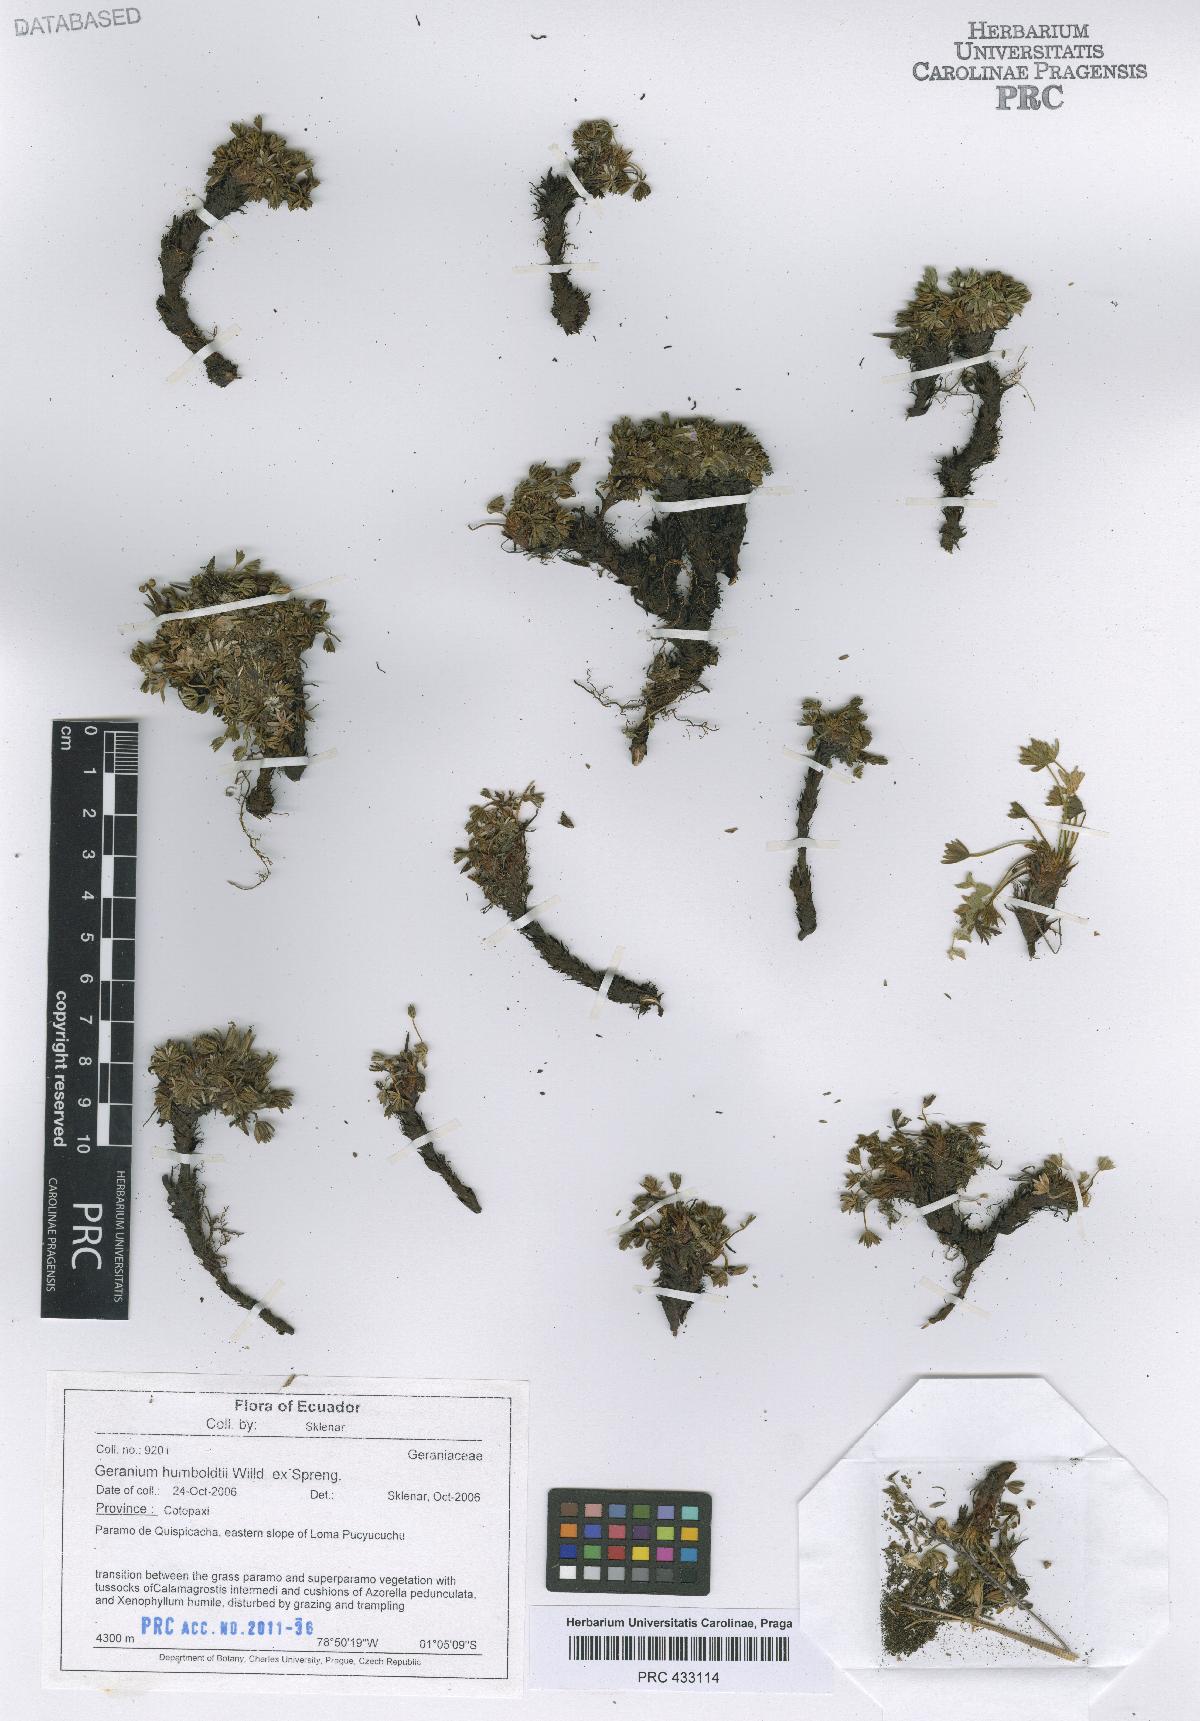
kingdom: Plantae
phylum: Tracheophyta
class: Magnoliopsida
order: Geraniales
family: Geraniaceae
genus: Geranium
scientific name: Geranium humboldtii
